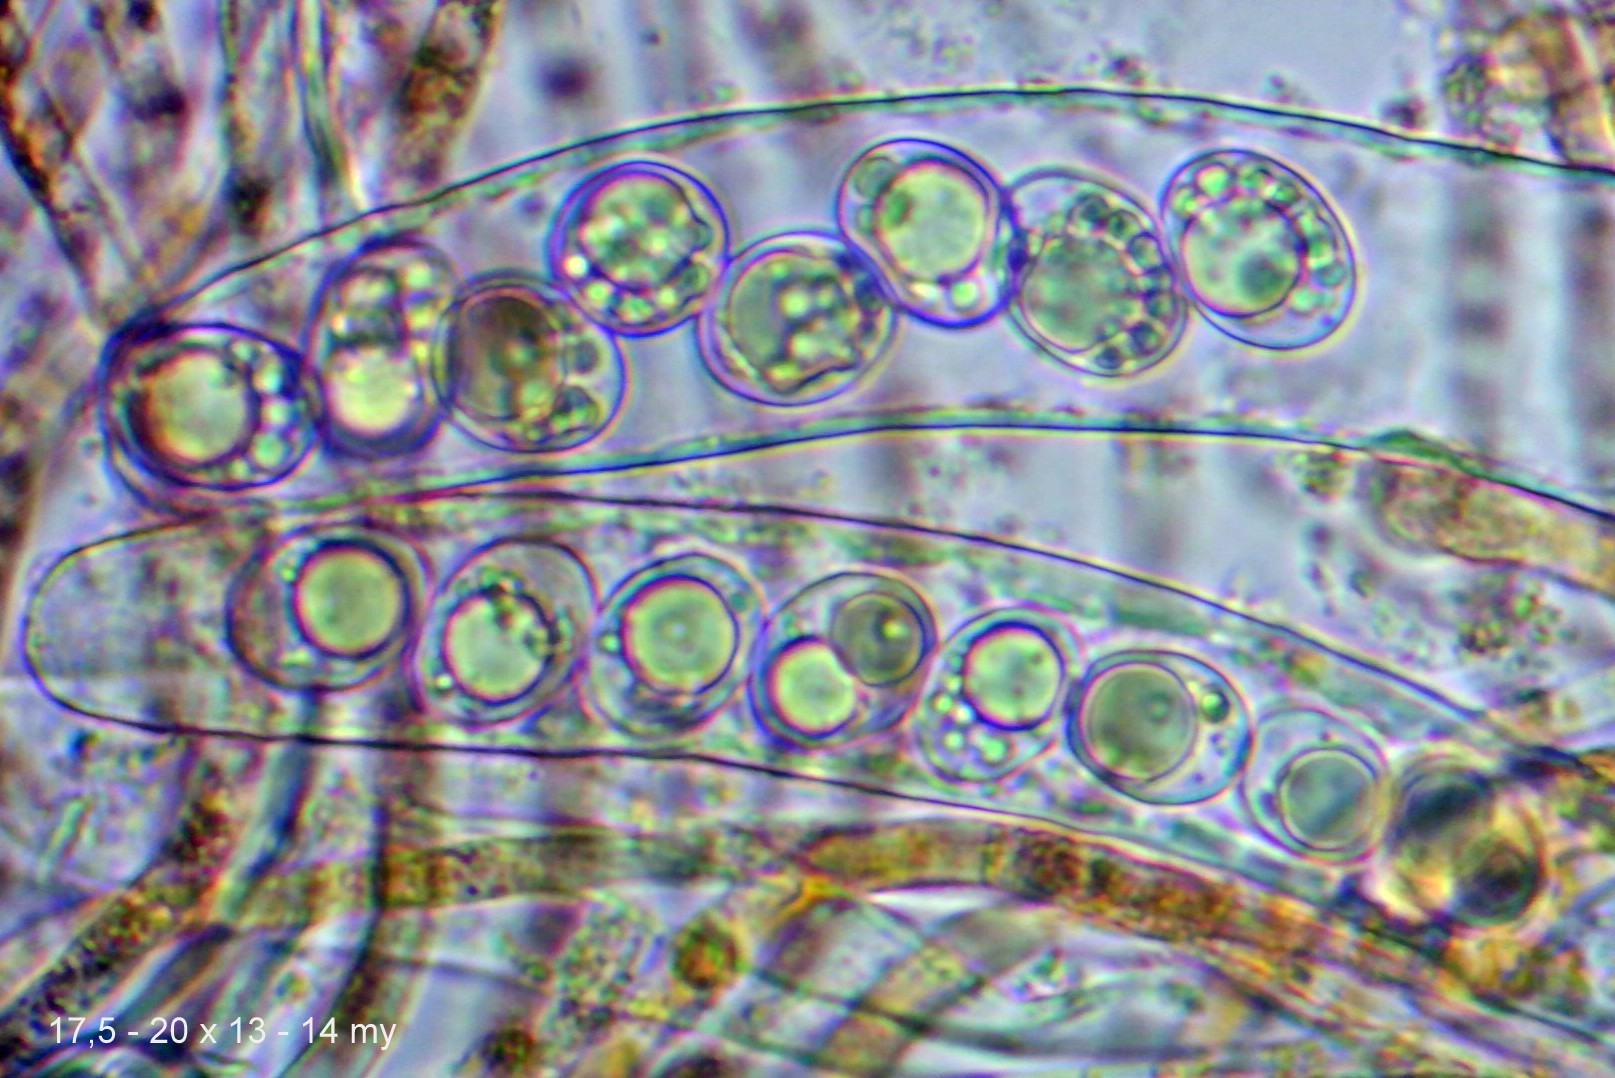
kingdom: Fungi
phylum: Ascomycota
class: Pezizomycetes
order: Pezizales
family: Pyronemataceae
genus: Octospora
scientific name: Octospora
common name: mosbæger
